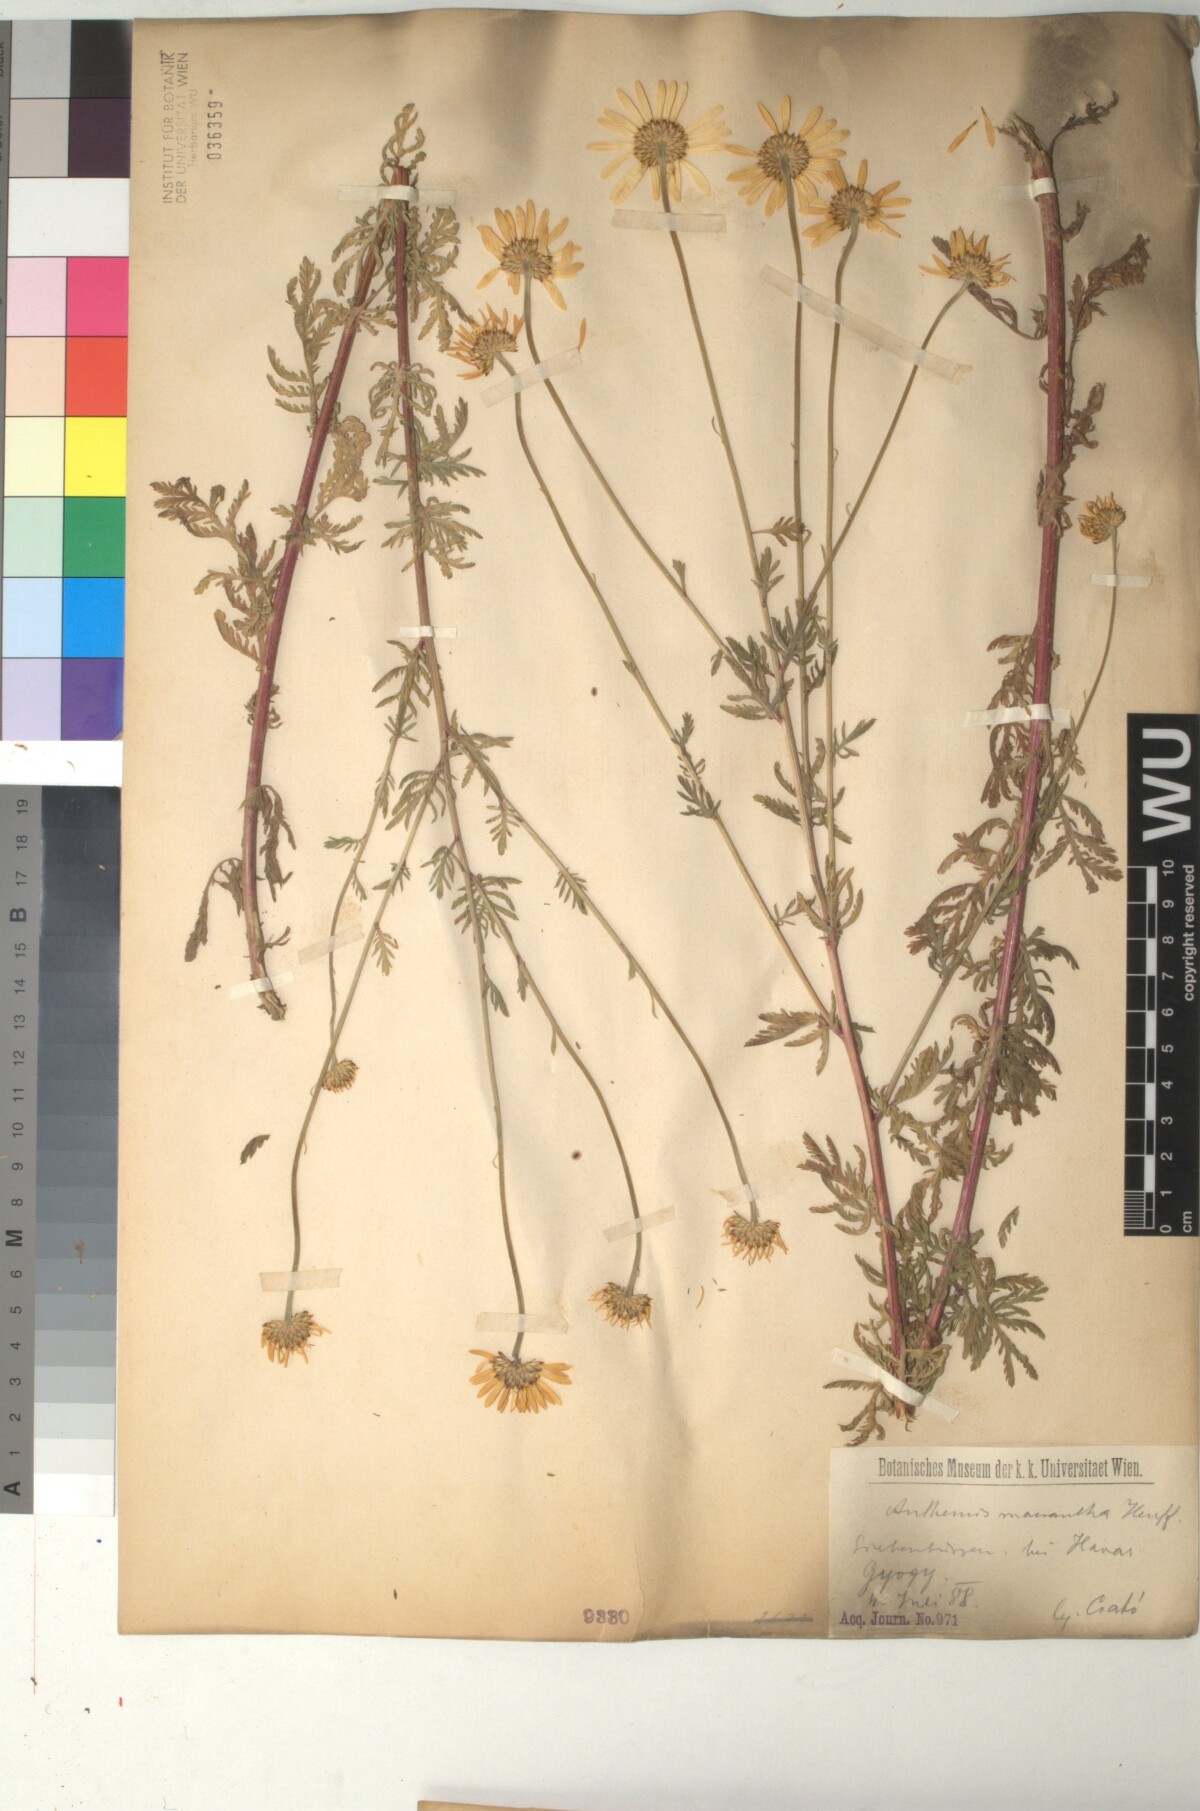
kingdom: Plantae
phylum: Tracheophyta
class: Magnoliopsida
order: Asterales
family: Asteraceae
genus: Cota
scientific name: Cota macrantha
